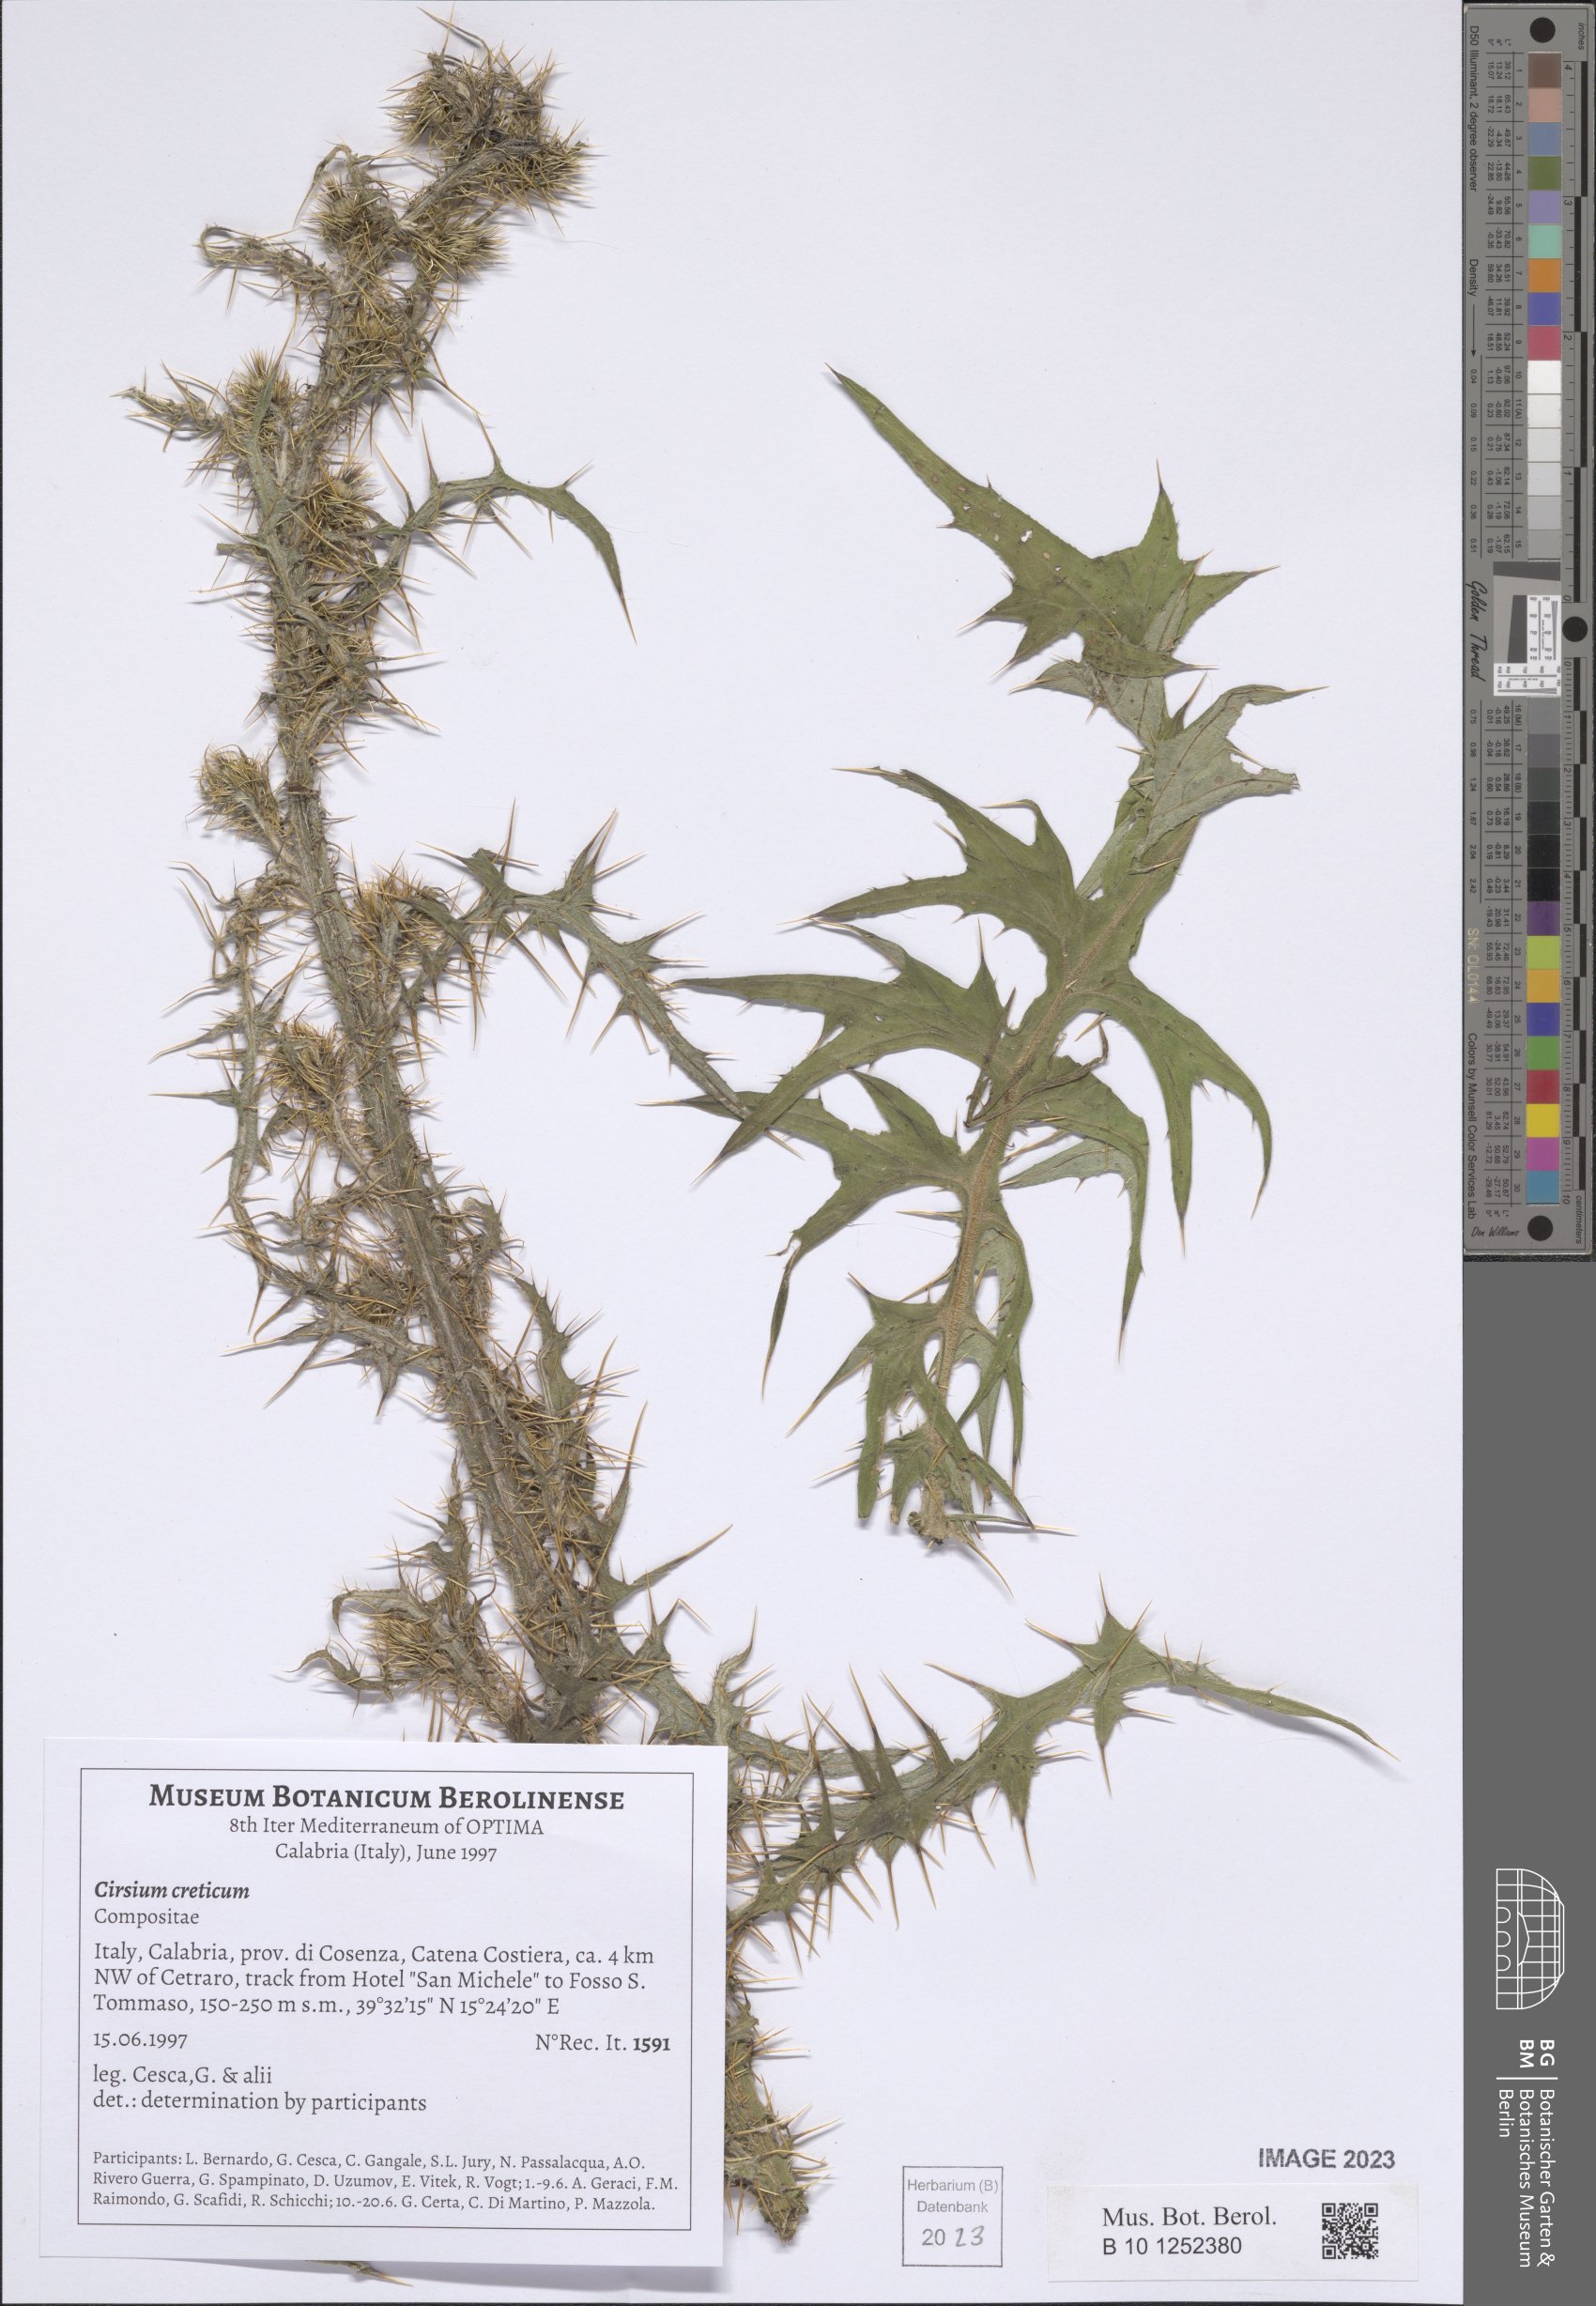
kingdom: Plantae
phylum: Tracheophyta
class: Magnoliopsida
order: Asterales
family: Asteraceae
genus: Cirsium
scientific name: Cirsium creticum
